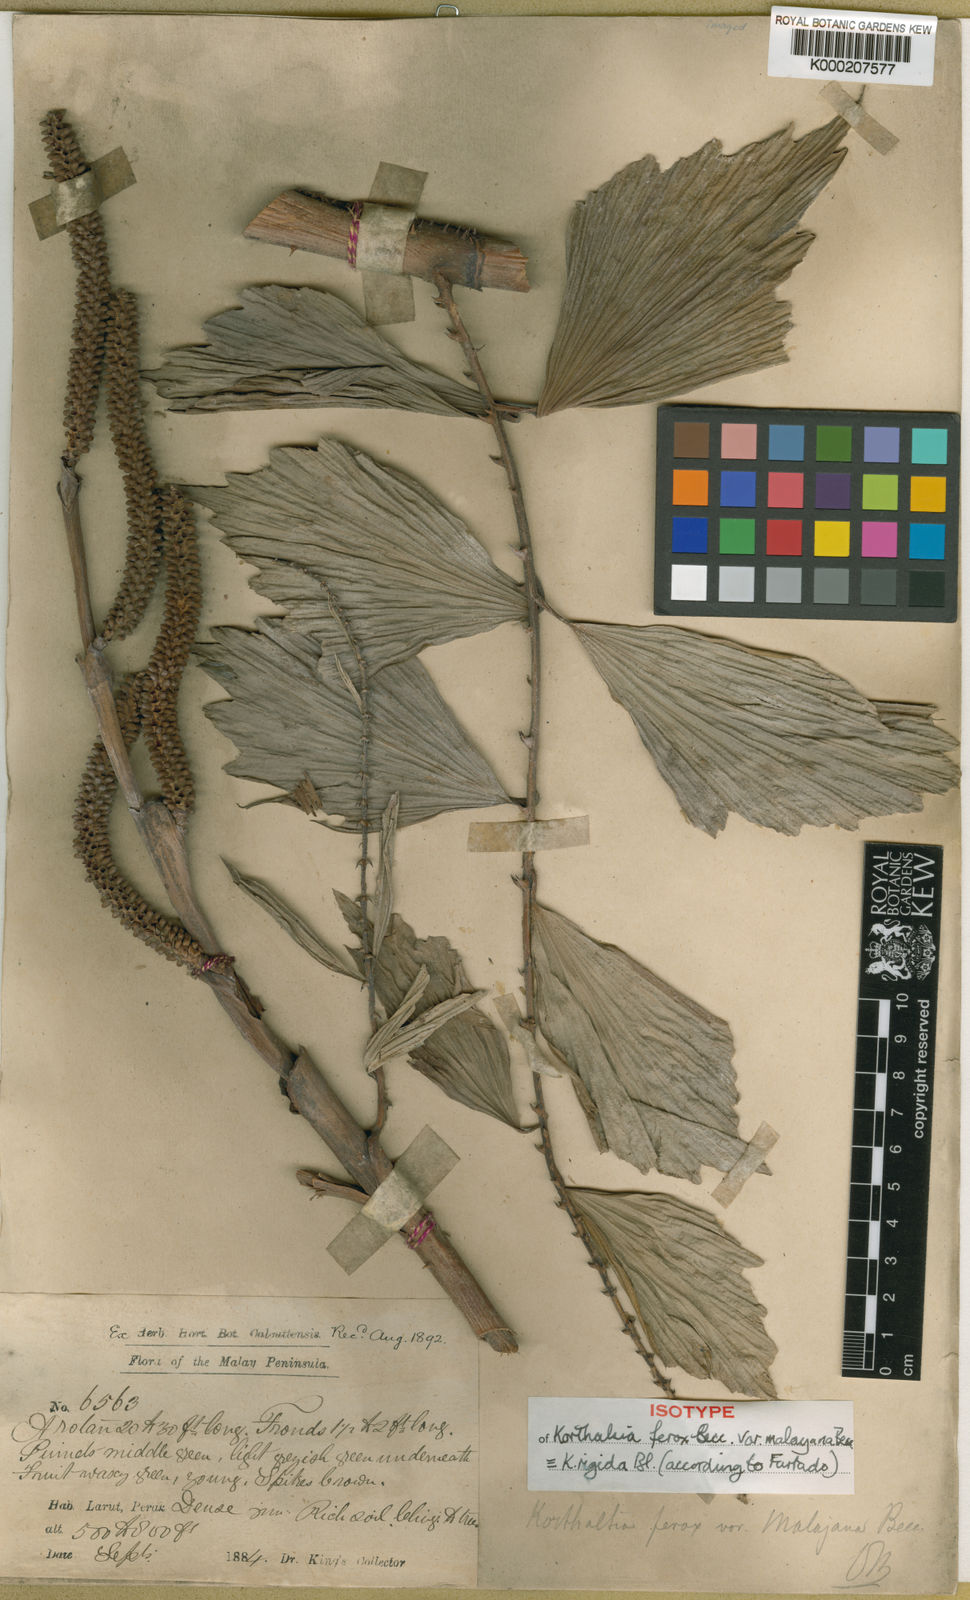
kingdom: Plantae
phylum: Tracheophyta
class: Liliopsida
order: Arecales
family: Arecaceae
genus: Korthalsia
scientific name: Korthalsia rigida
